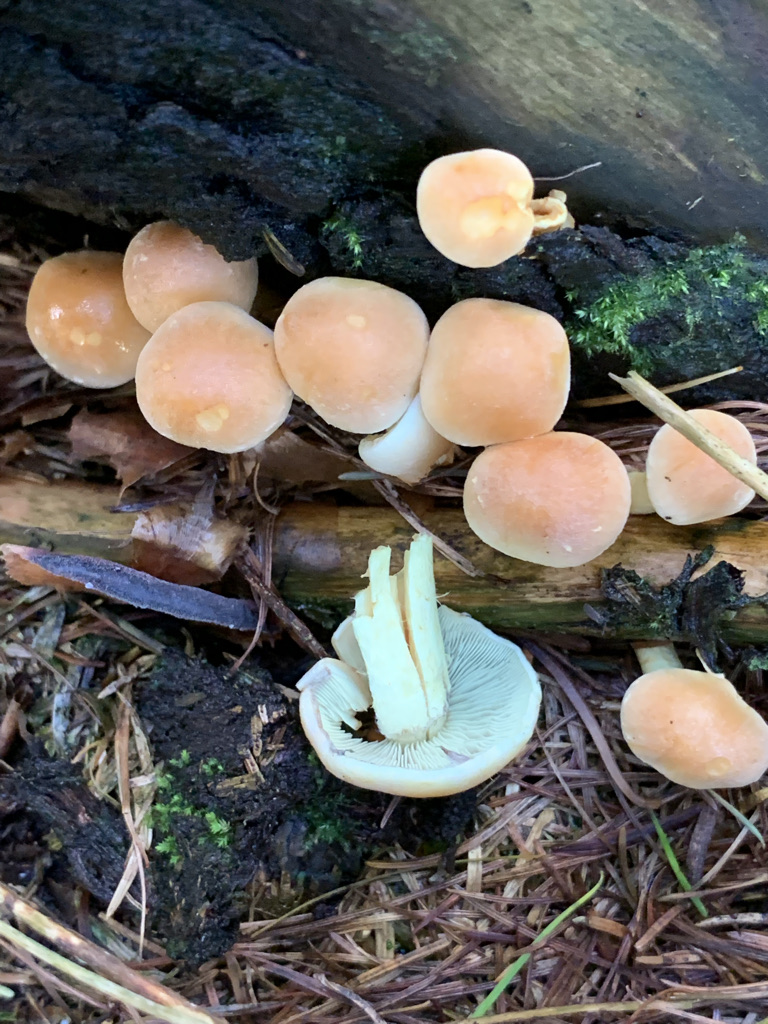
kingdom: Fungi
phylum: Basidiomycota
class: Agaricomycetes
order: Agaricales
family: Strophariaceae
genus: Hypholoma
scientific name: Hypholoma fasciculare
